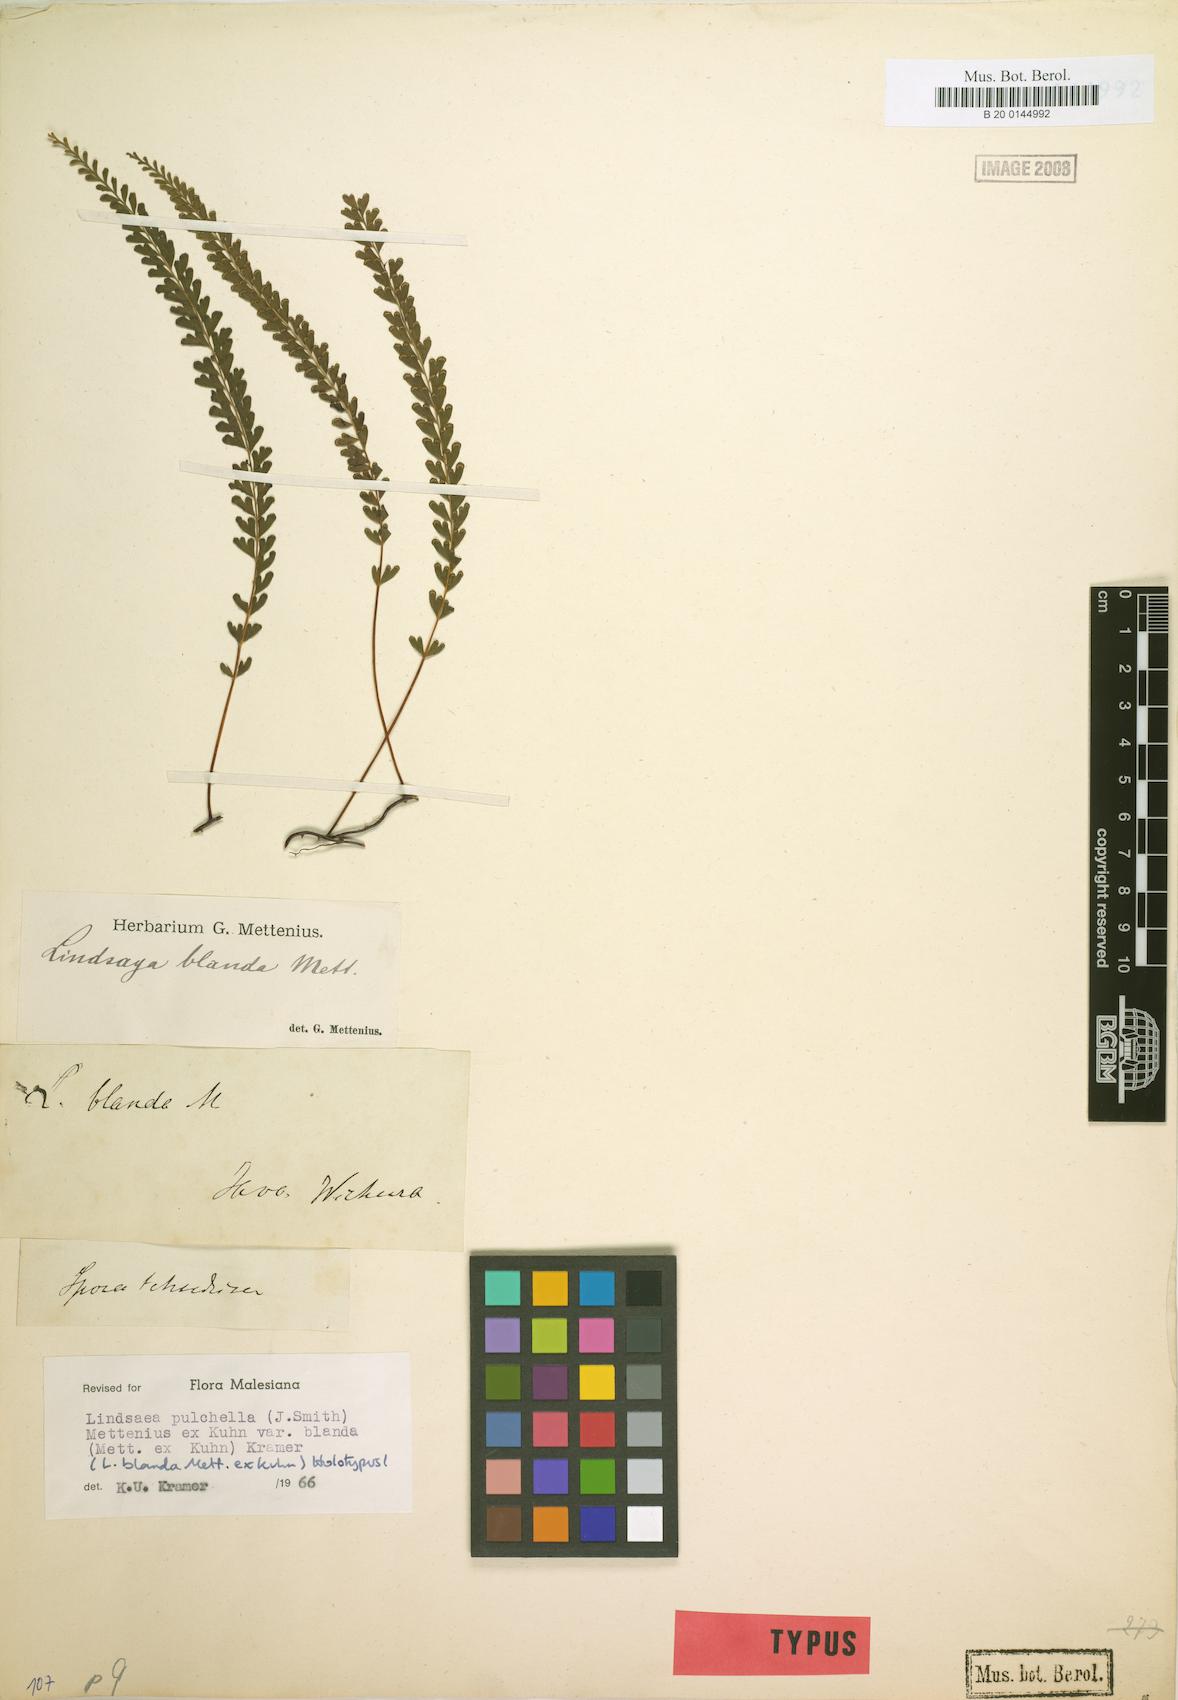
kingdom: Plantae
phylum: Tracheophyta
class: Polypodiopsida
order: Polypodiales
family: Lindsaeaceae
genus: Lindsaea
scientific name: Lindsaea blanda
